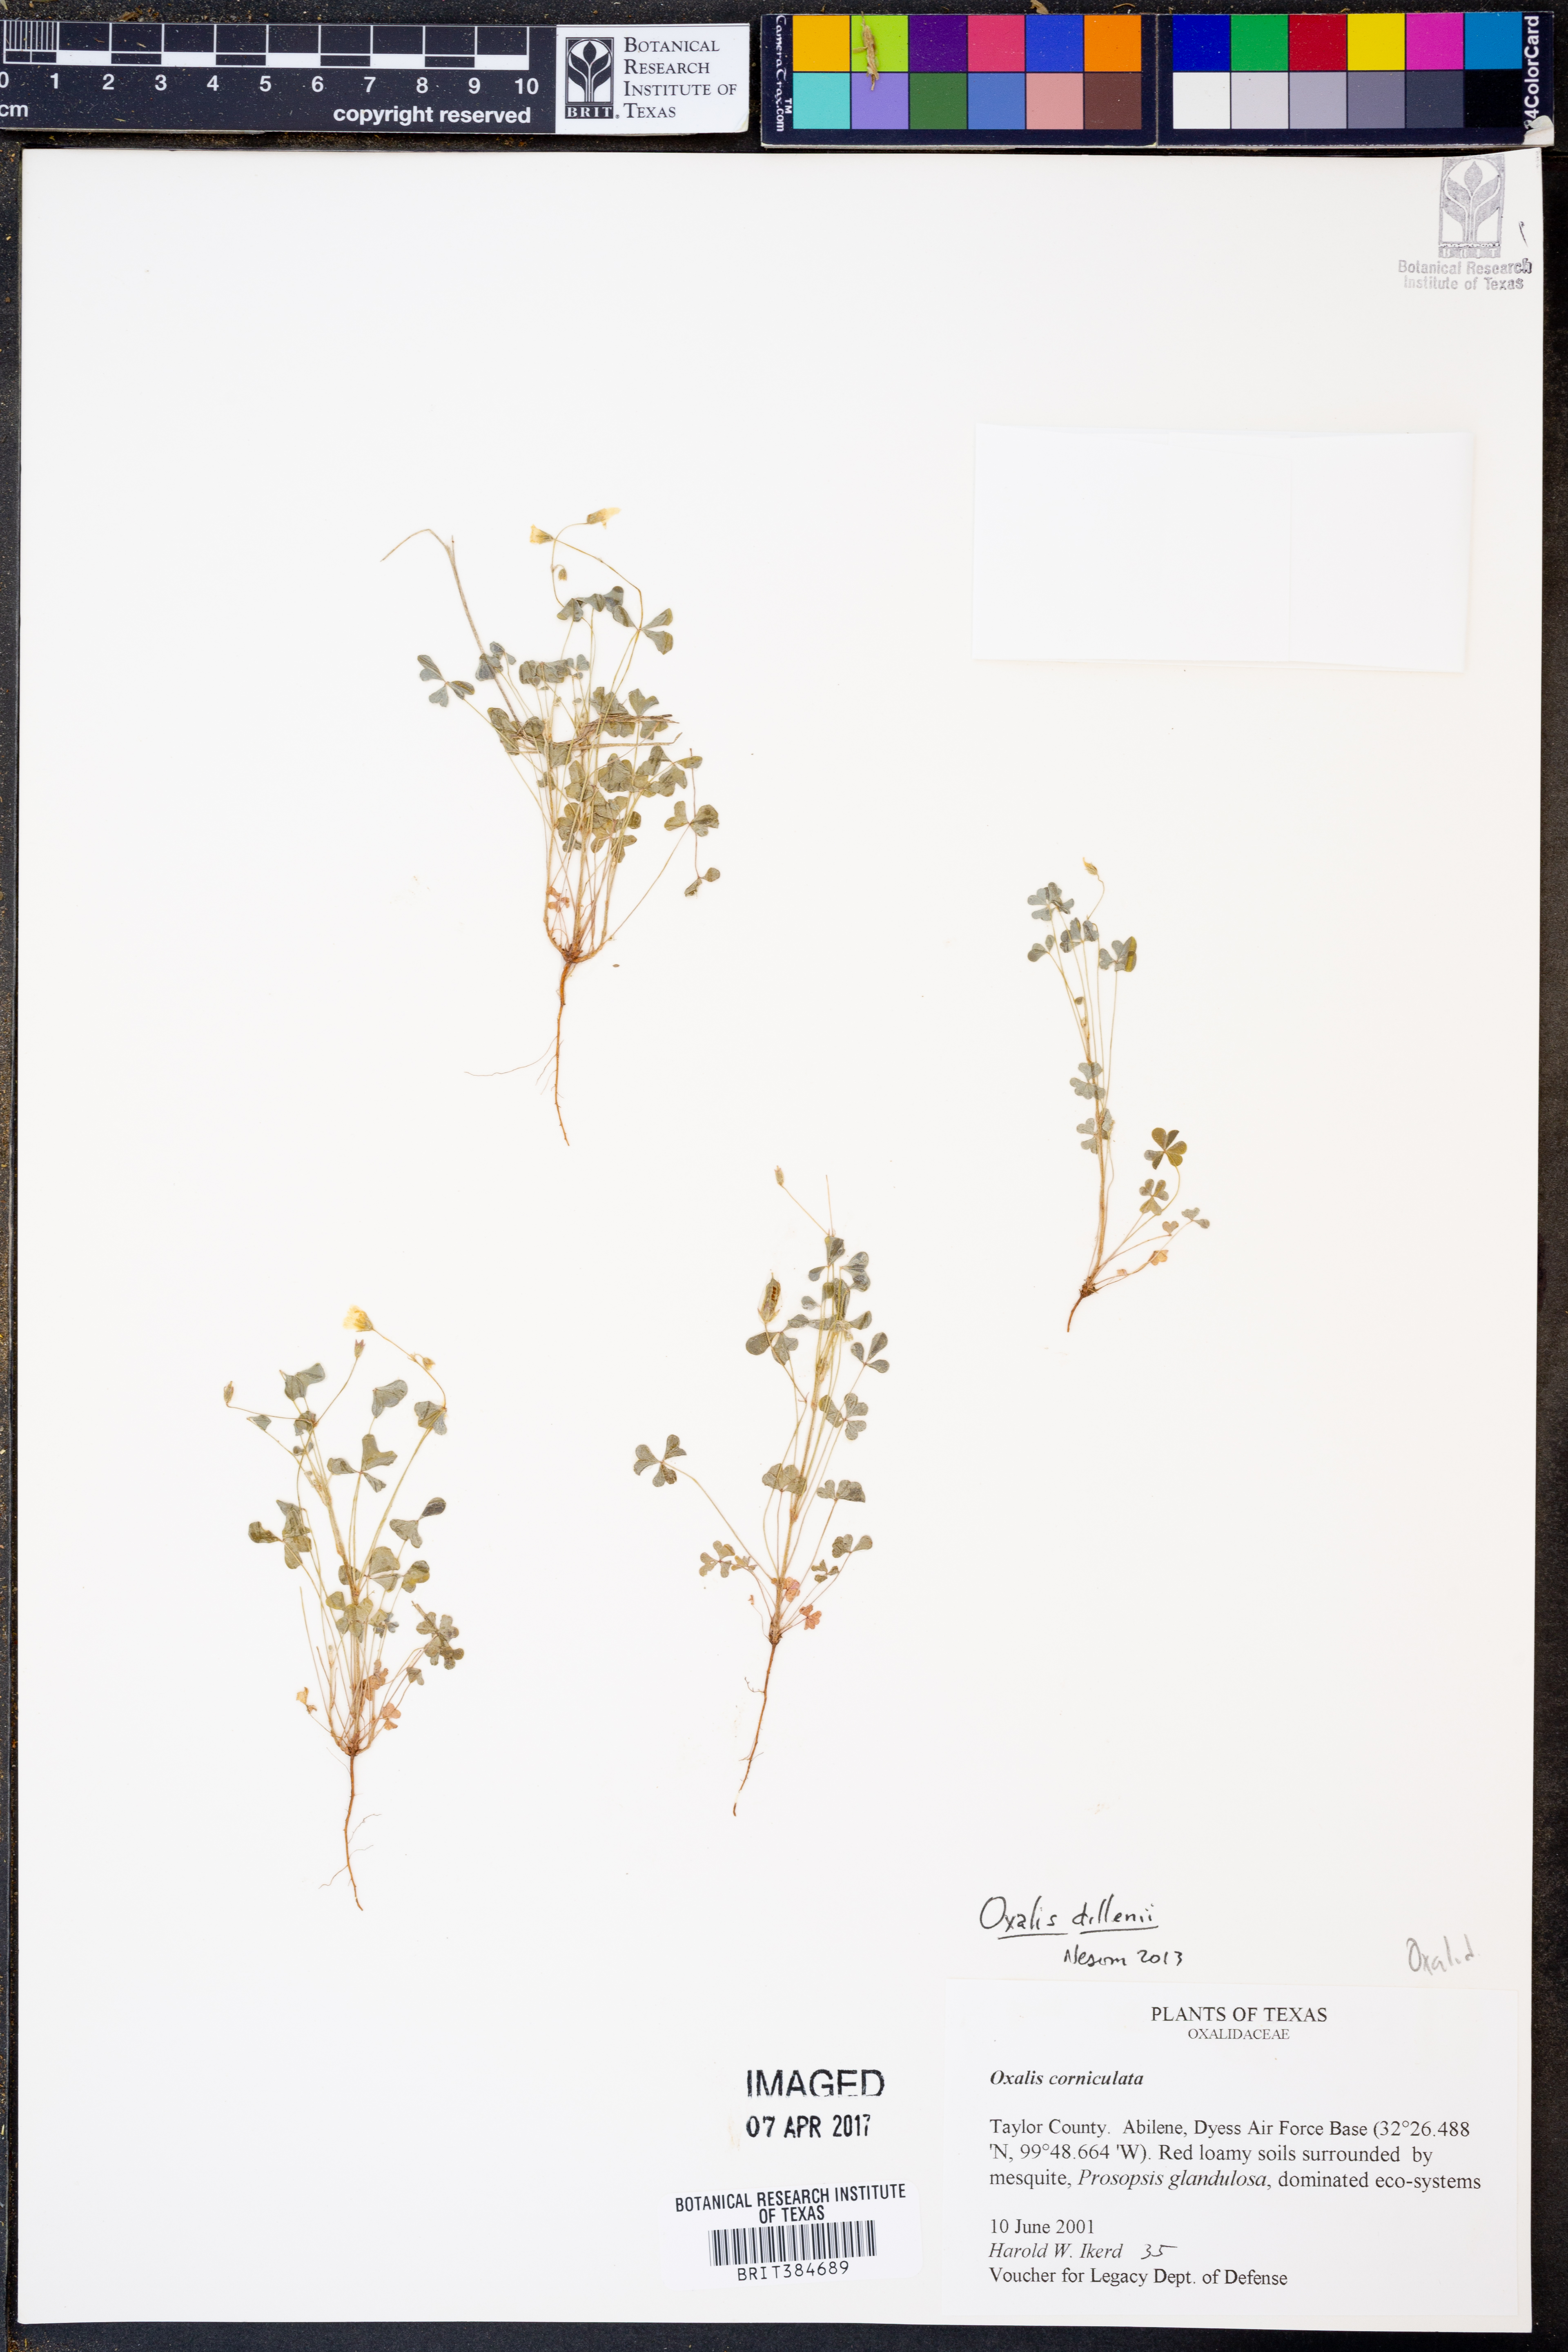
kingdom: Plantae
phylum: Tracheophyta
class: Magnoliopsida
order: Oxalidales
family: Oxalidaceae
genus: Oxalis
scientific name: Oxalis dillenii
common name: Sussex yellow-sorrel
